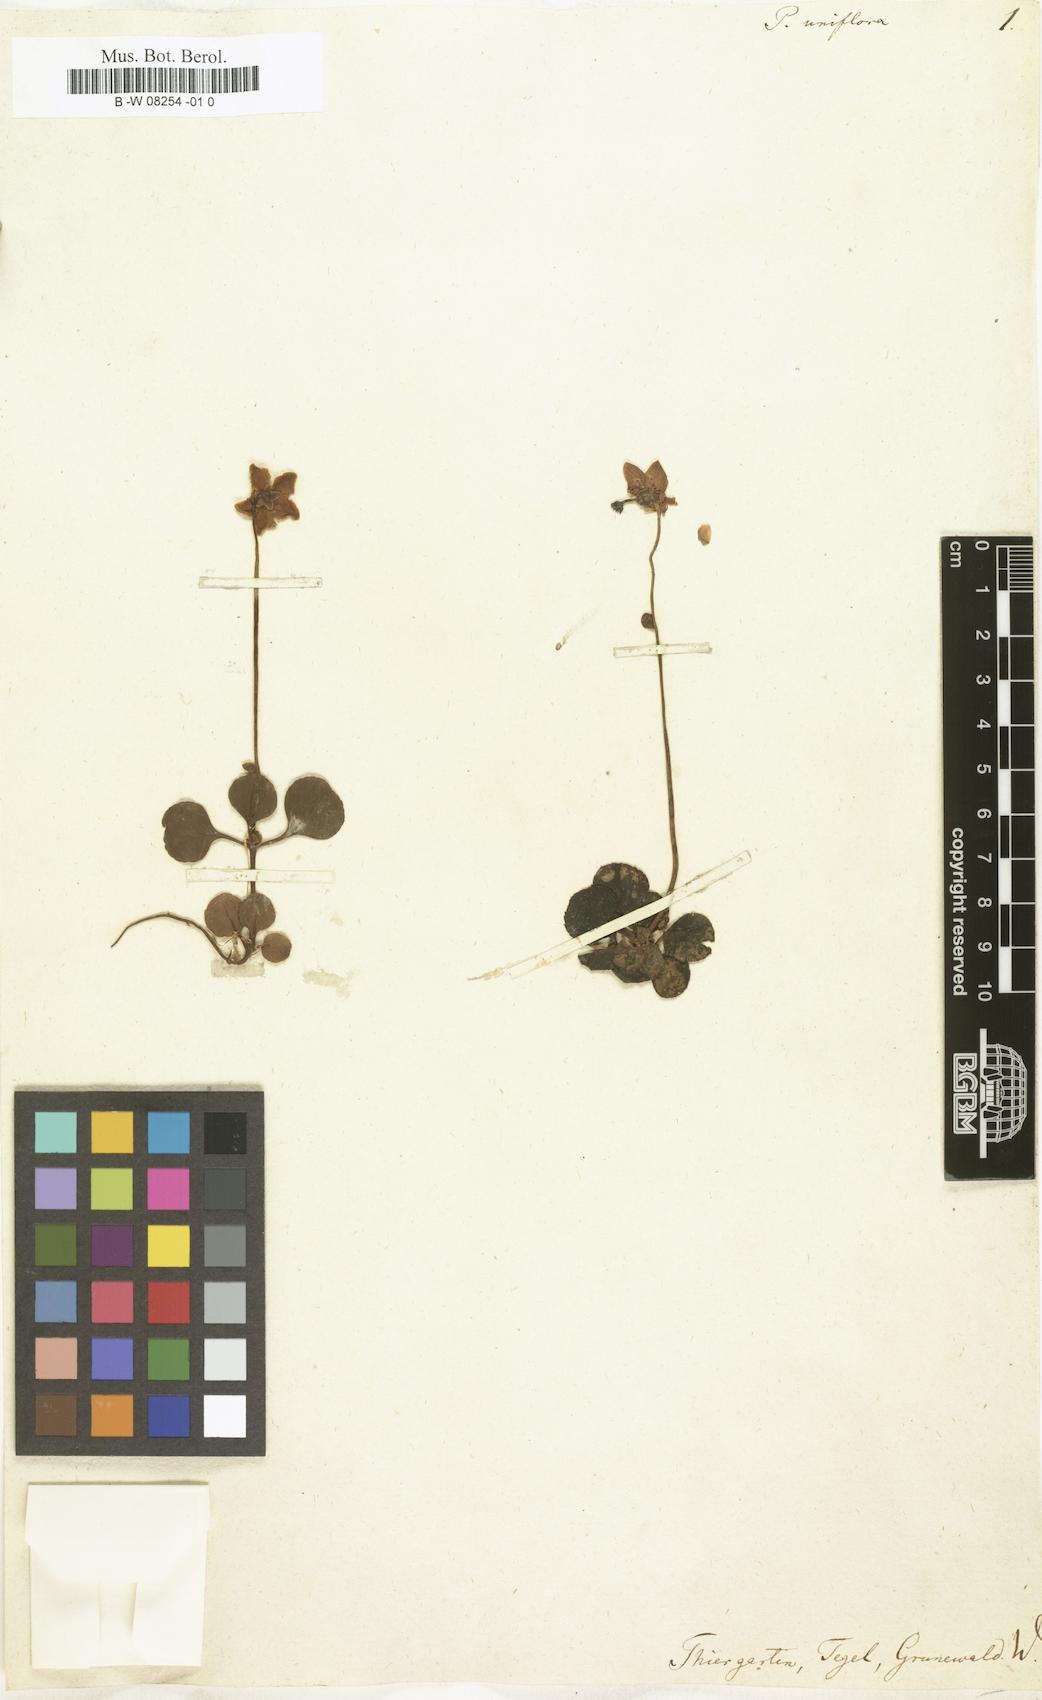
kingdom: Plantae
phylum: Tracheophyta
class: Magnoliopsida
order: Ericales
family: Ericaceae
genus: Moneses
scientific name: Moneses uniflora
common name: One-flowered wintergreen
